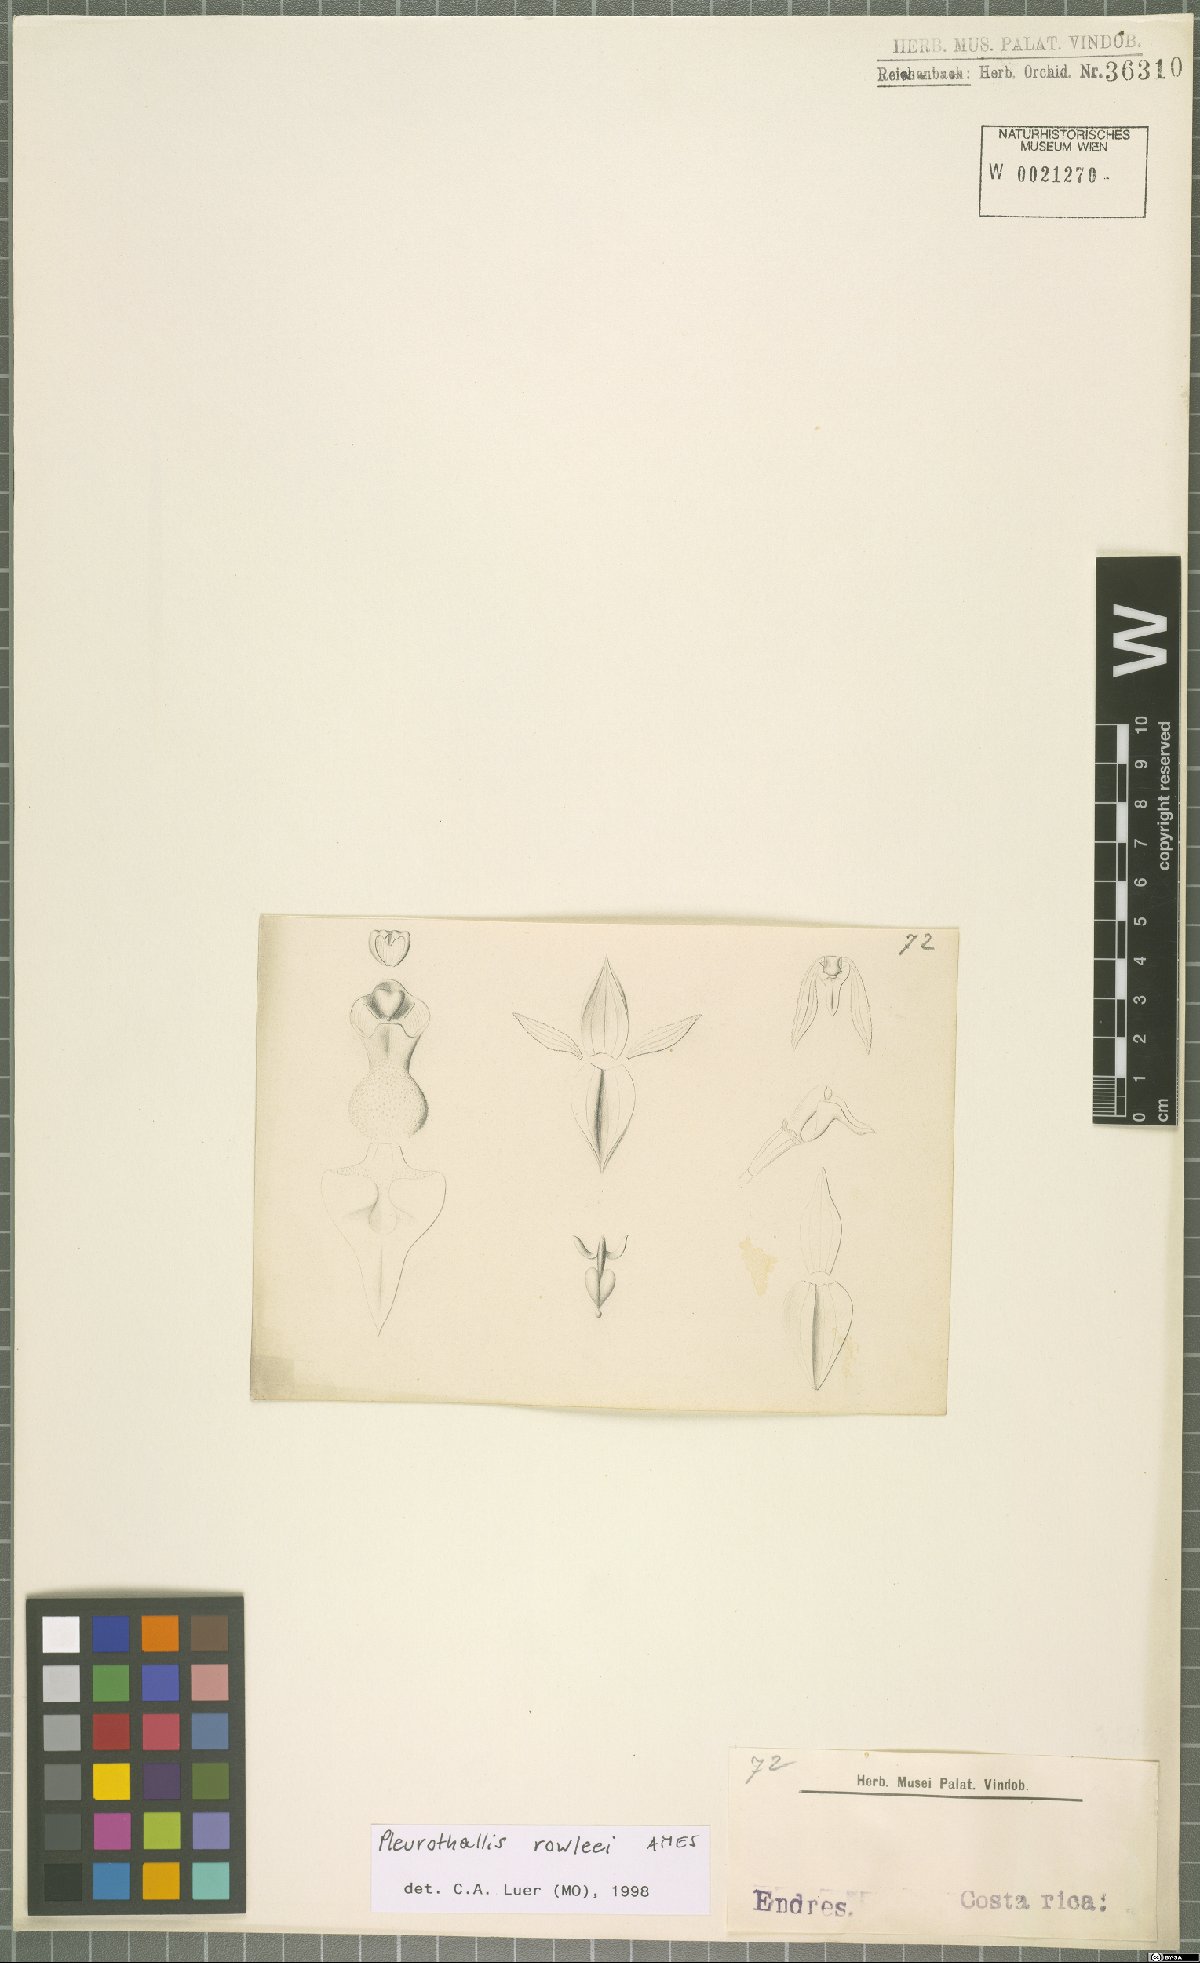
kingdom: Plantae
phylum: Tracheophyta
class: Liliopsida
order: Asparagales
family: Orchidaceae
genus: Pleurothallis
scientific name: Pleurothallis rowleei
